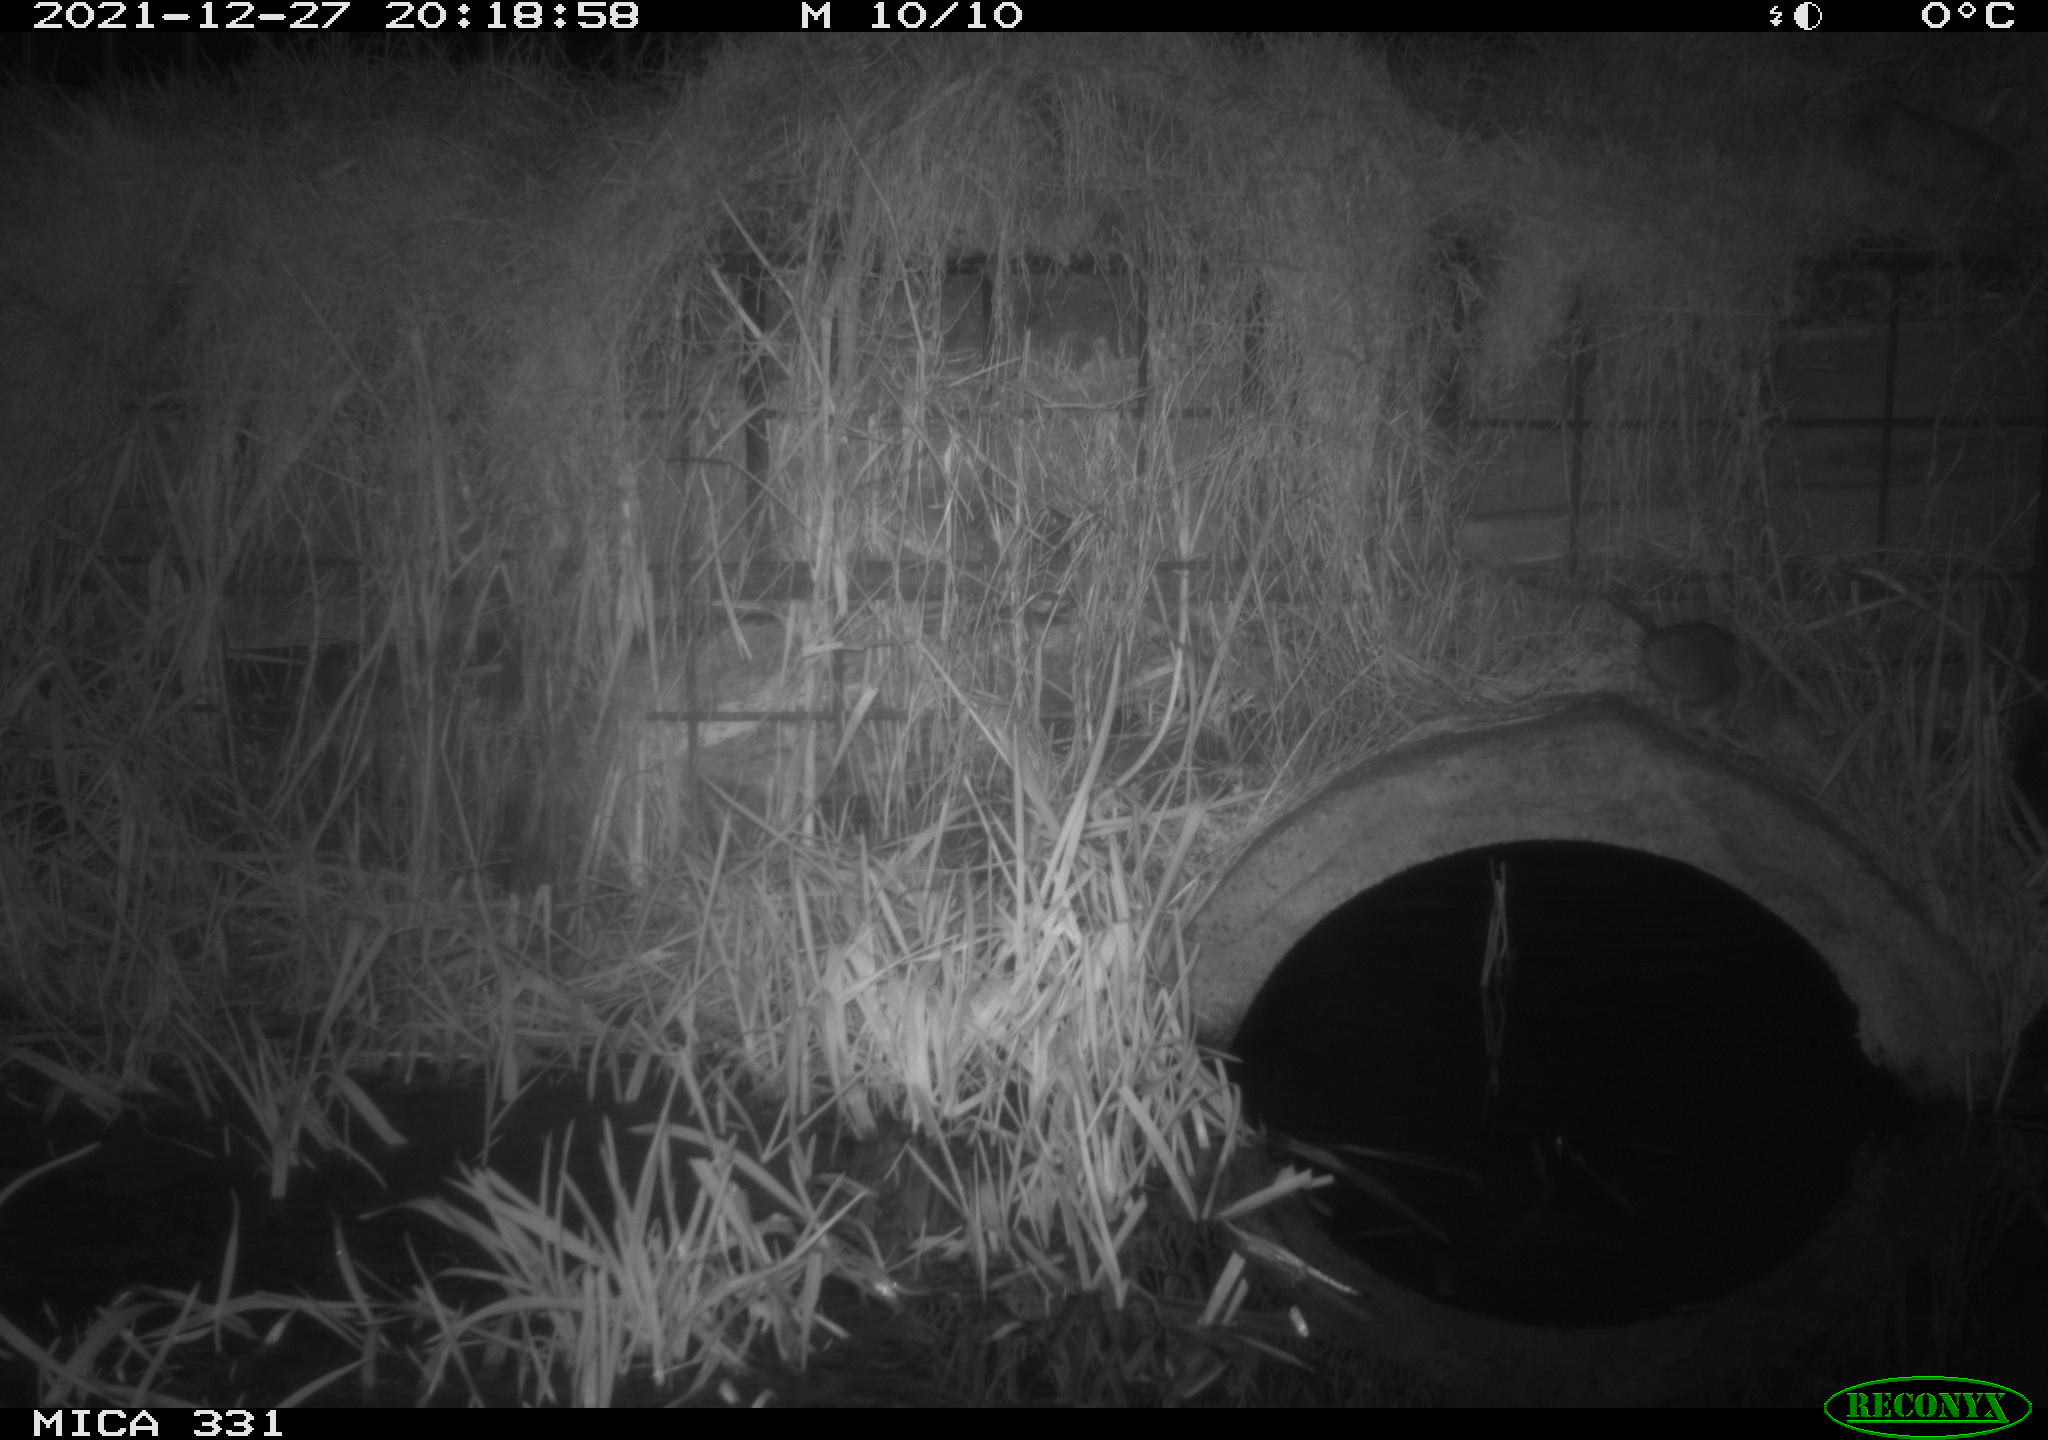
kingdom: Animalia
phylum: Chordata
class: Mammalia
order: Rodentia
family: Muridae
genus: Rattus
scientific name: Rattus norvegicus
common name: Brown rat
